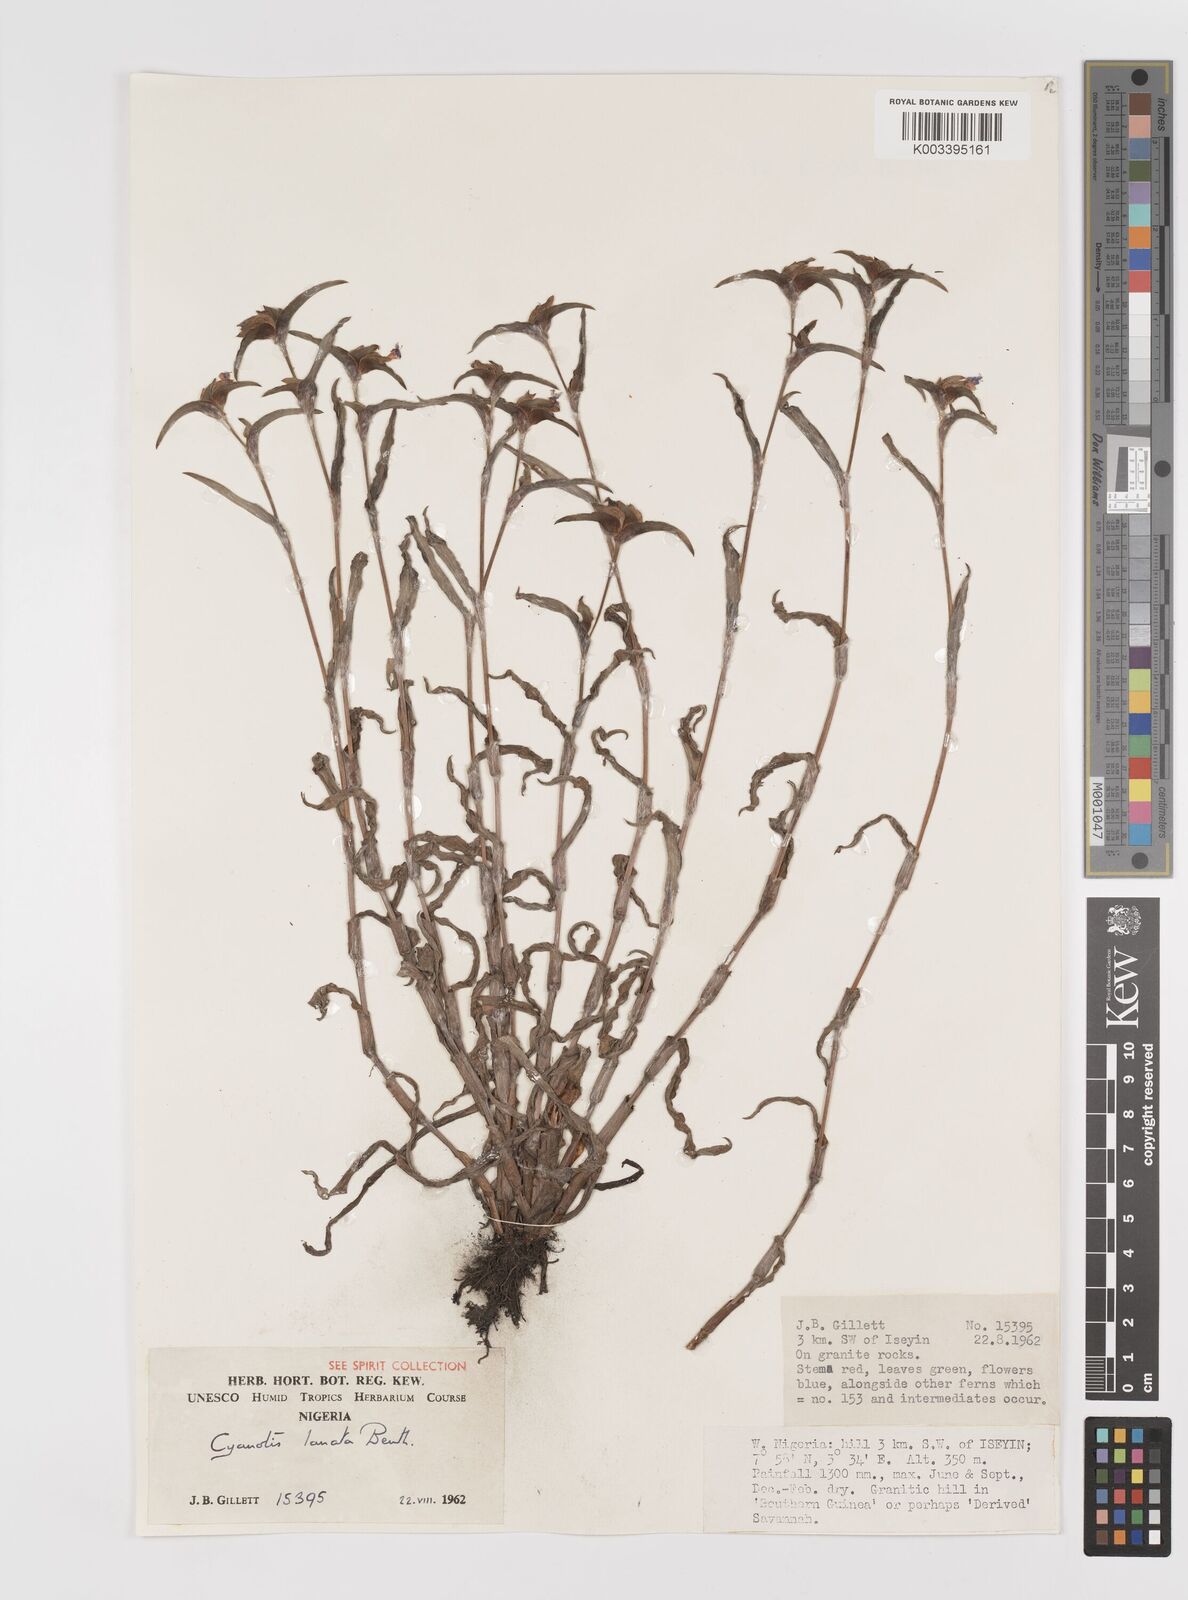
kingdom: Plantae
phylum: Tracheophyta
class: Liliopsida
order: Commelinales
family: Commelinaceae
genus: Cyanotis
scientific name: Cyanotis lanata
